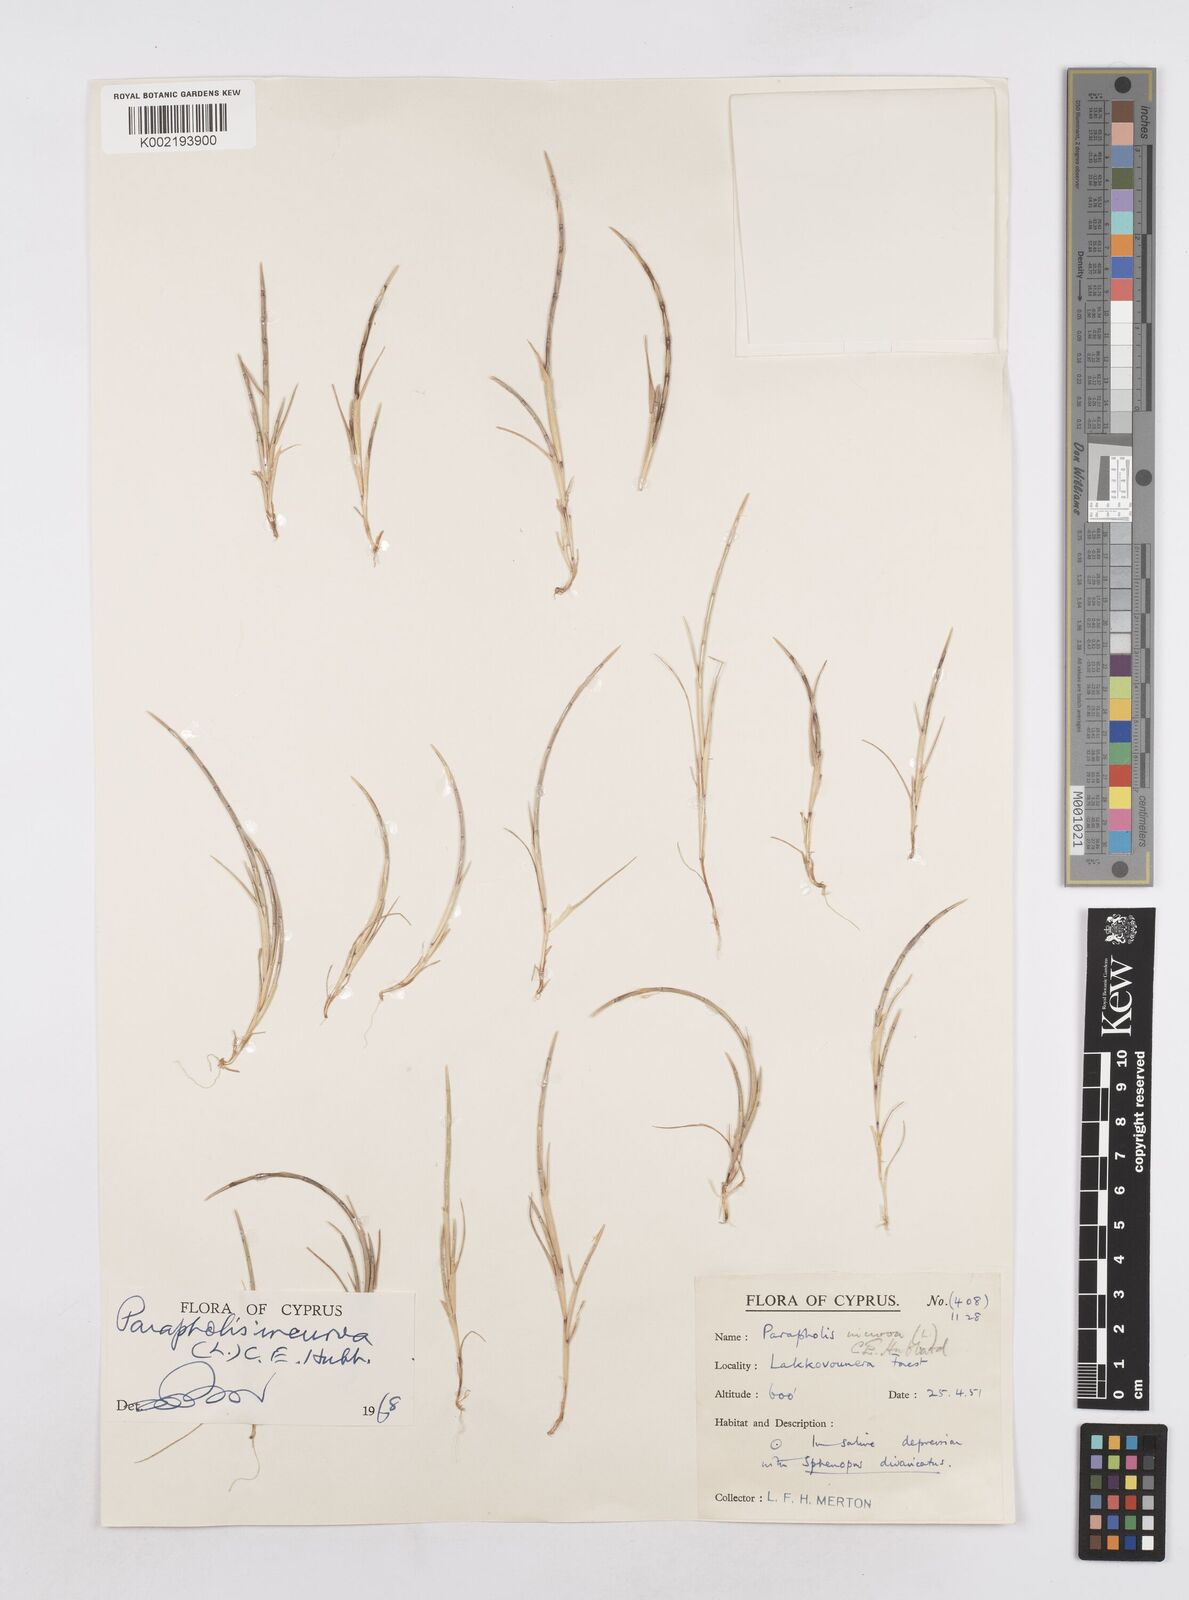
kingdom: Plantae
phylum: Tracheophyta
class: Liliopsida
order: Poales
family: Poaceae
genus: Parapholis
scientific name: Parapholis incurva
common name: Curved sicklegrass
